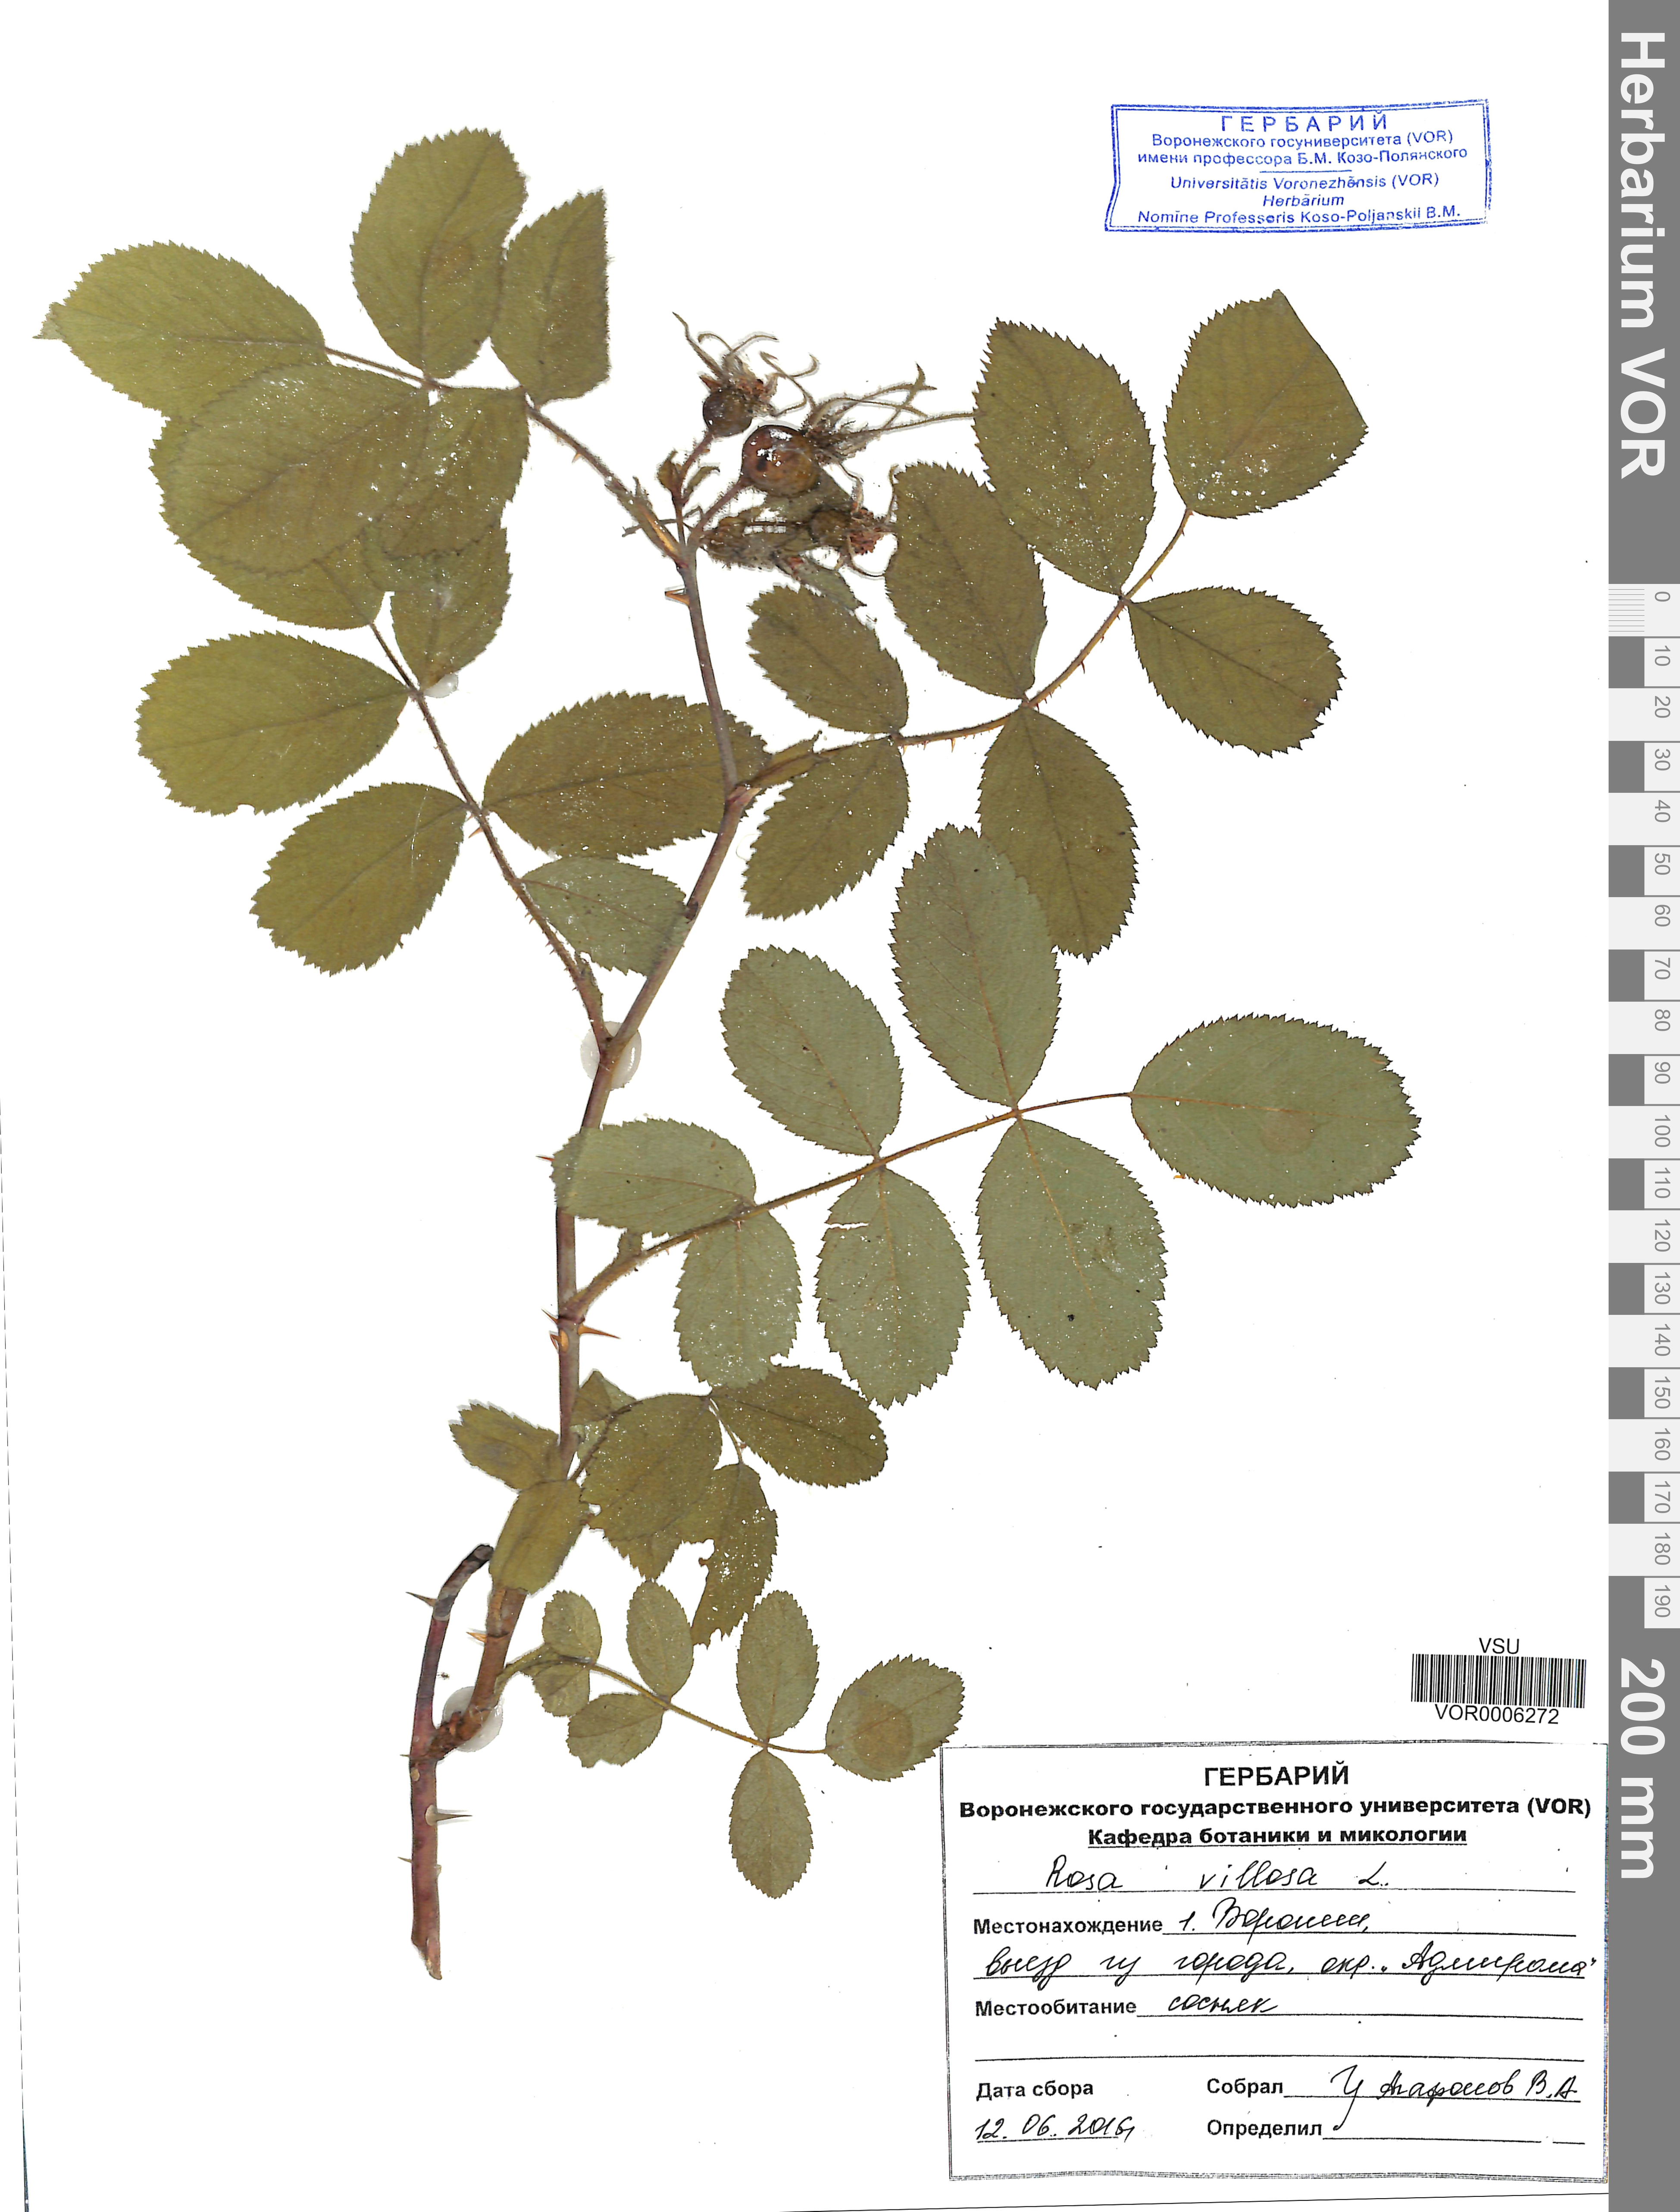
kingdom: Plantae
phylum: Tracheophyta
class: Magnoliopsida
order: Rosales
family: Rosaceae
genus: Rosa
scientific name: Rosa villosa
